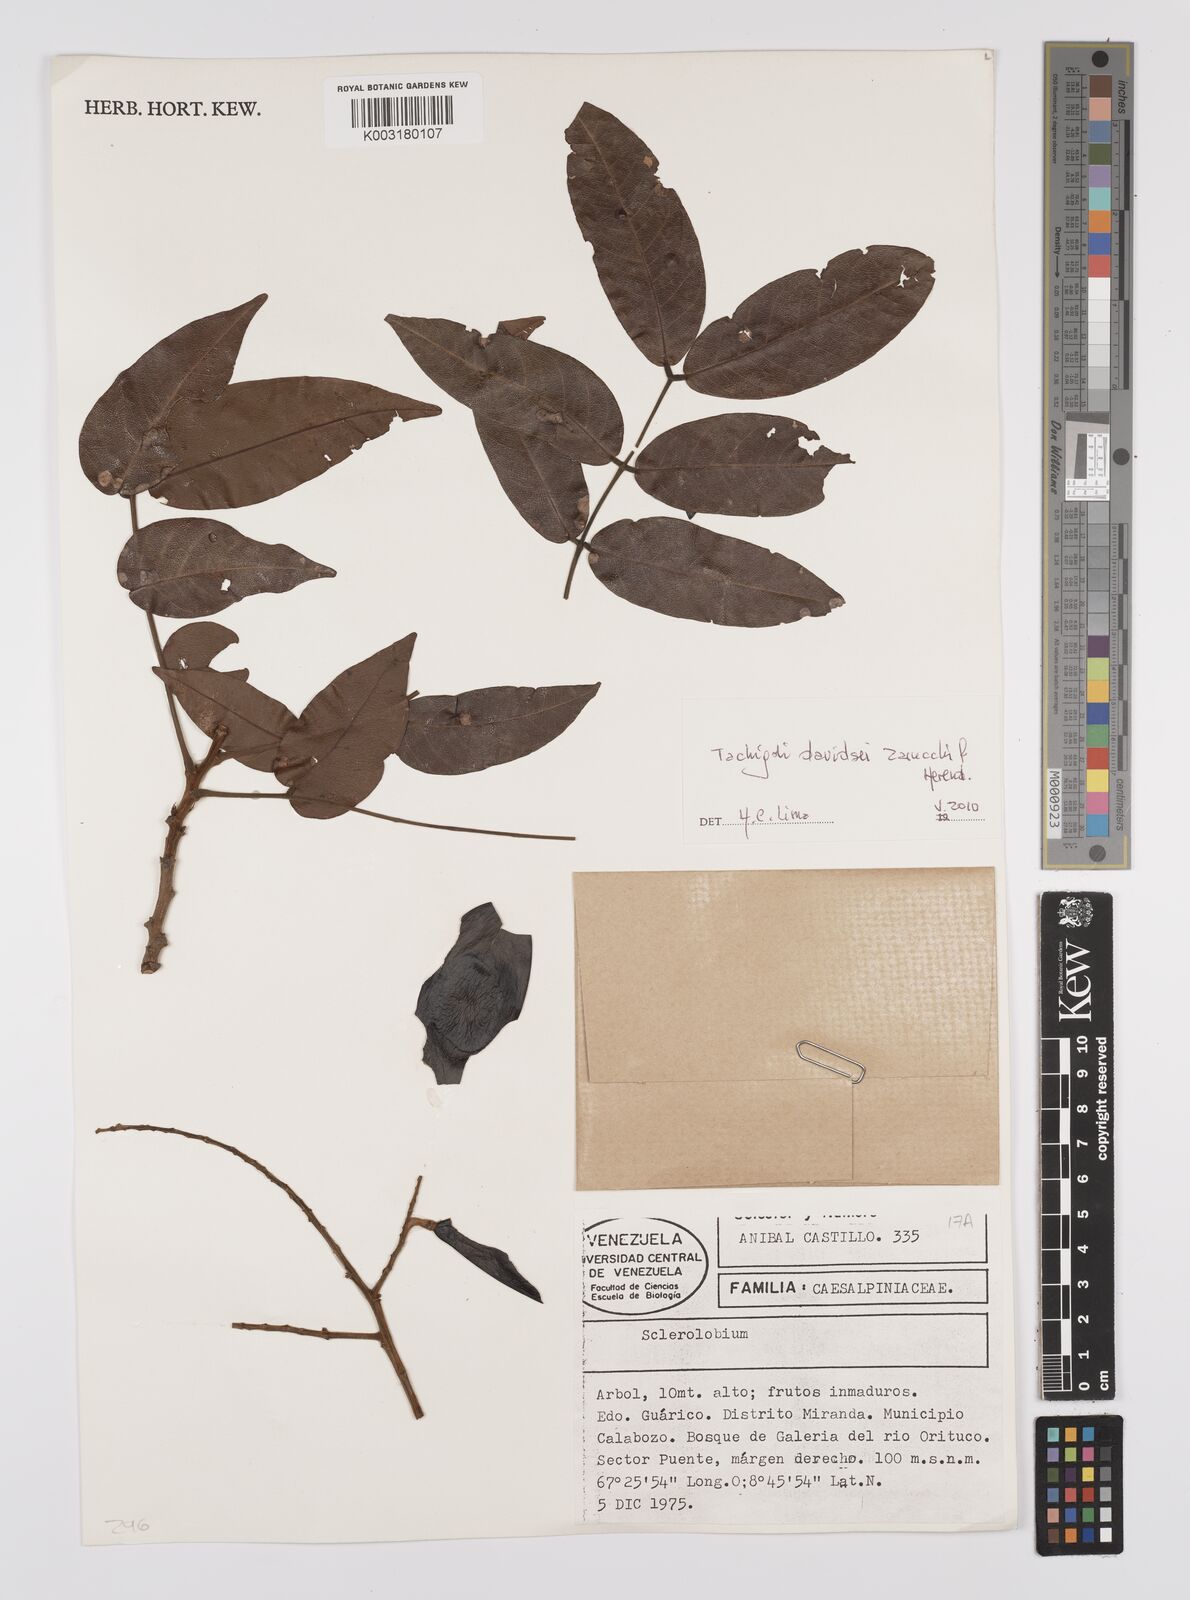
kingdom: Plantae
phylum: Tracheophyta
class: Magnoliopsida
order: Fabales
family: Fabaceae
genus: Tachigali
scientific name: Tachigali davidsei
